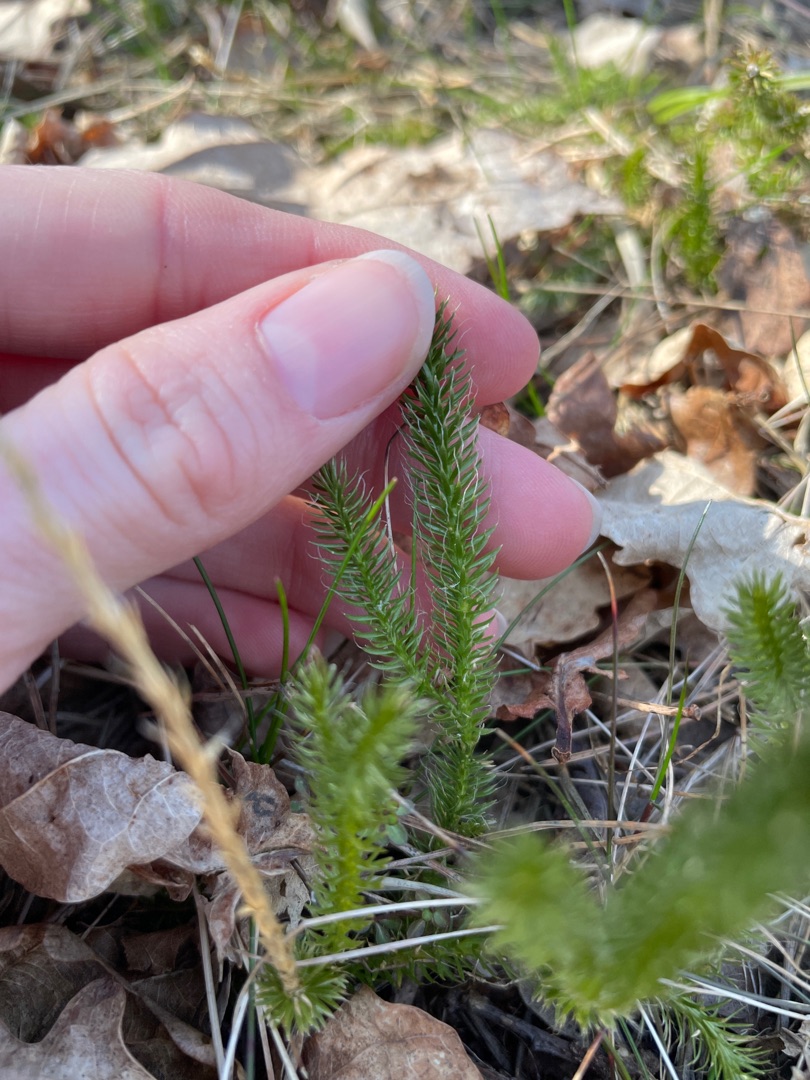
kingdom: Plantae
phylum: Tracheophyta
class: Lycopodiopsida
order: Lycopodiales
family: Lycopodiaceae
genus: Lycopodium
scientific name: Lycopodium clavatum
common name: Almindelig ulvefod
